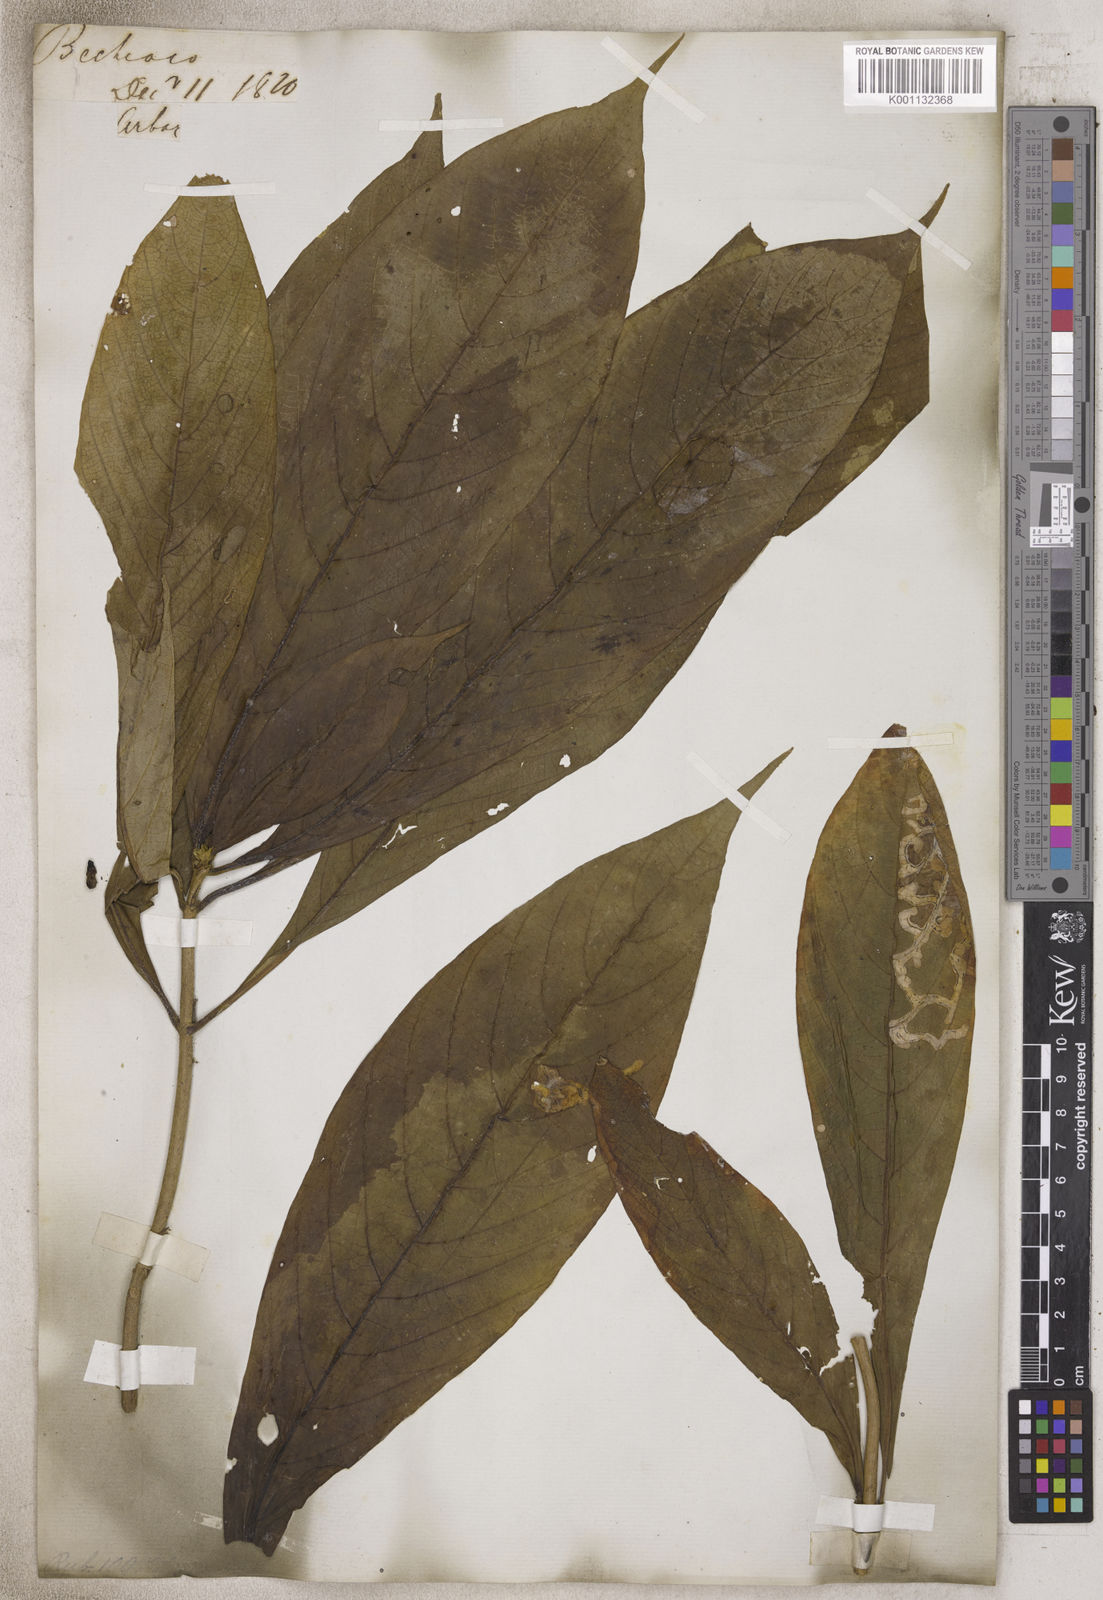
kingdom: Plantae
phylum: Tracheophyta
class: Magnoliopsida
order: Gentianales
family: Rubiaceae
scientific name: Rubiaceae
